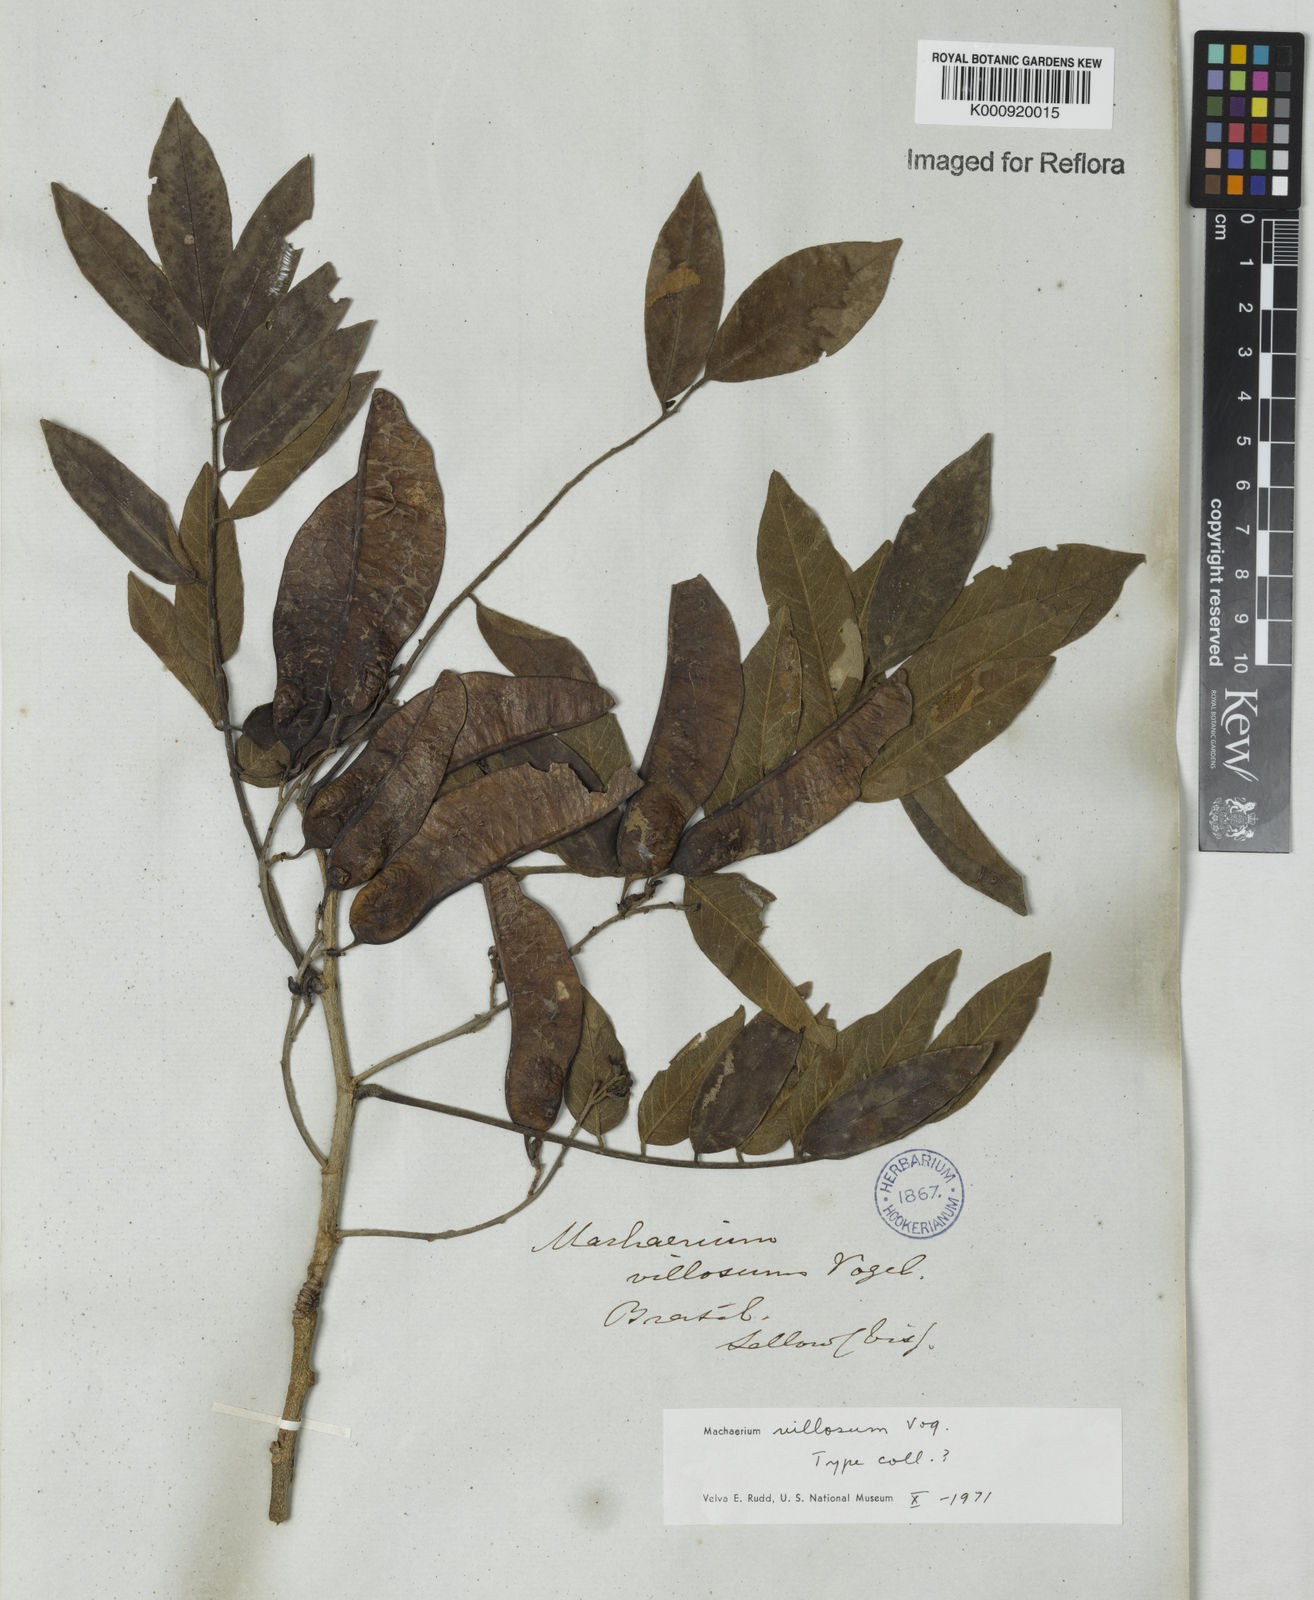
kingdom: Plantae
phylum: Tracheophyta
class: Magnoliopsida
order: Fabales
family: Fabaceae
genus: Machaerium
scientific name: Machaerium villosum
